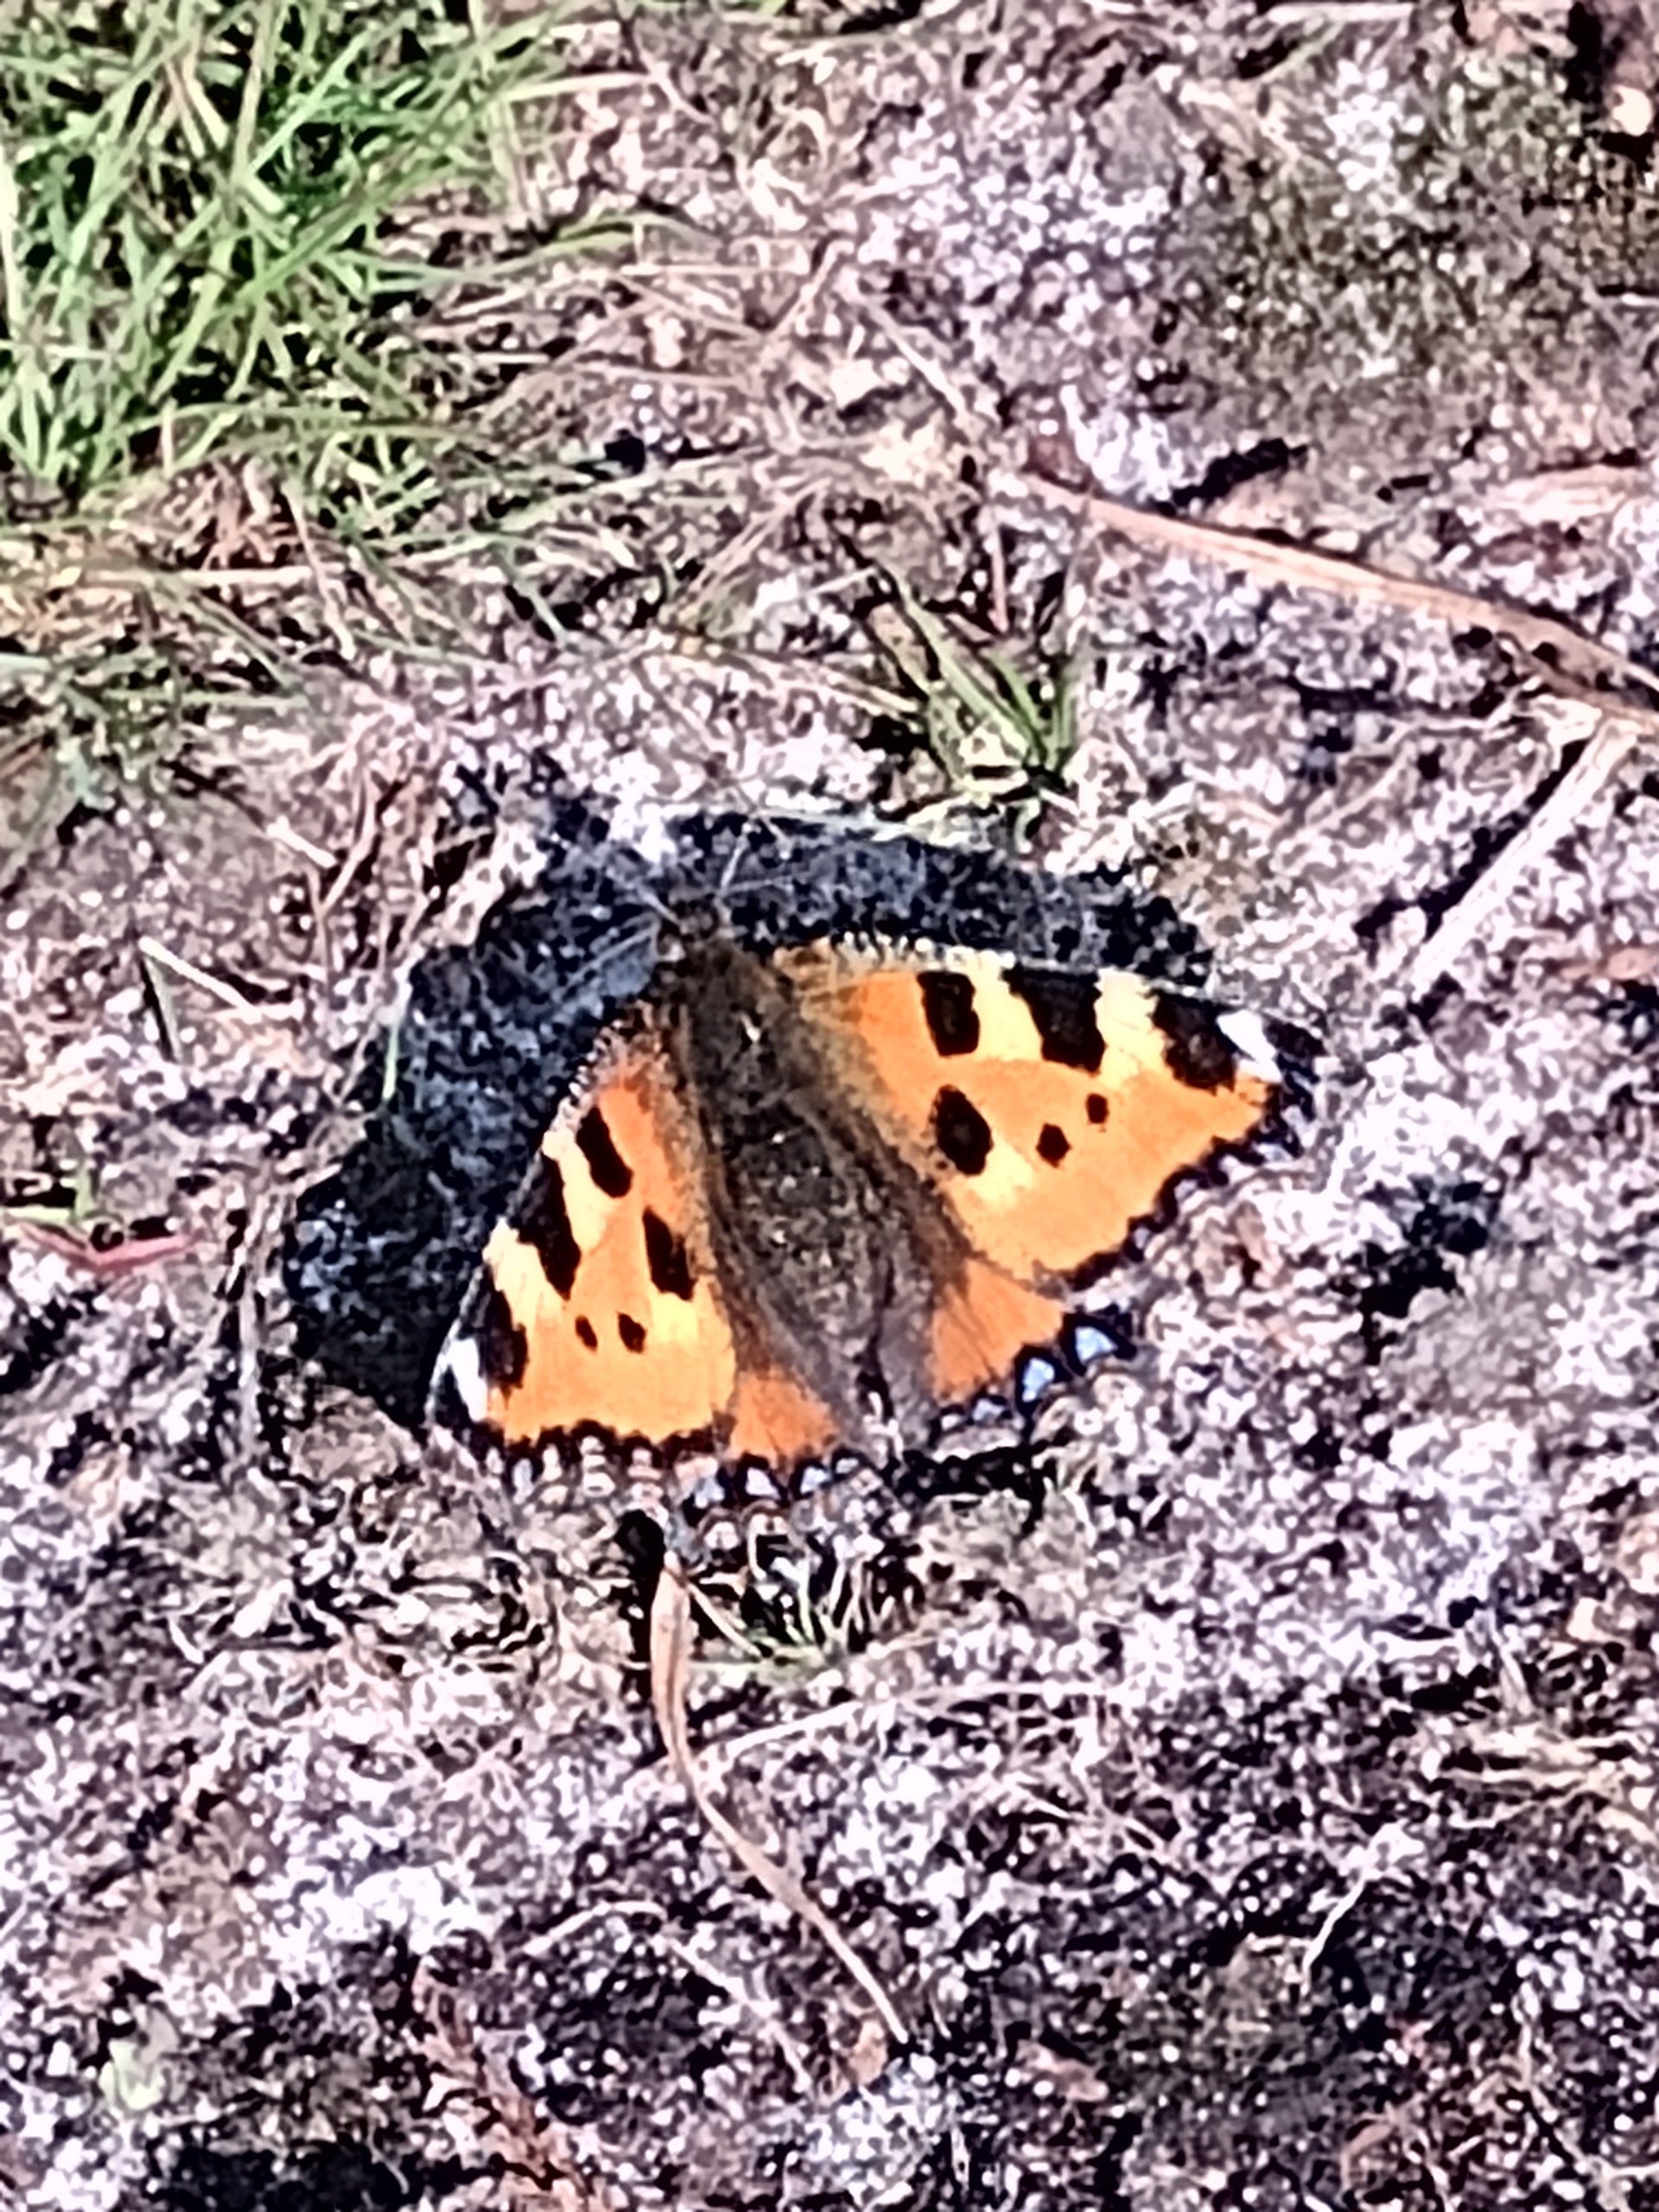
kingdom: Animalia
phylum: Arthropoda
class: Insecta
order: Lepidoptera
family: Nymphalidae
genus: Aglais
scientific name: Aglais urticae
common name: Nældens takvinge
